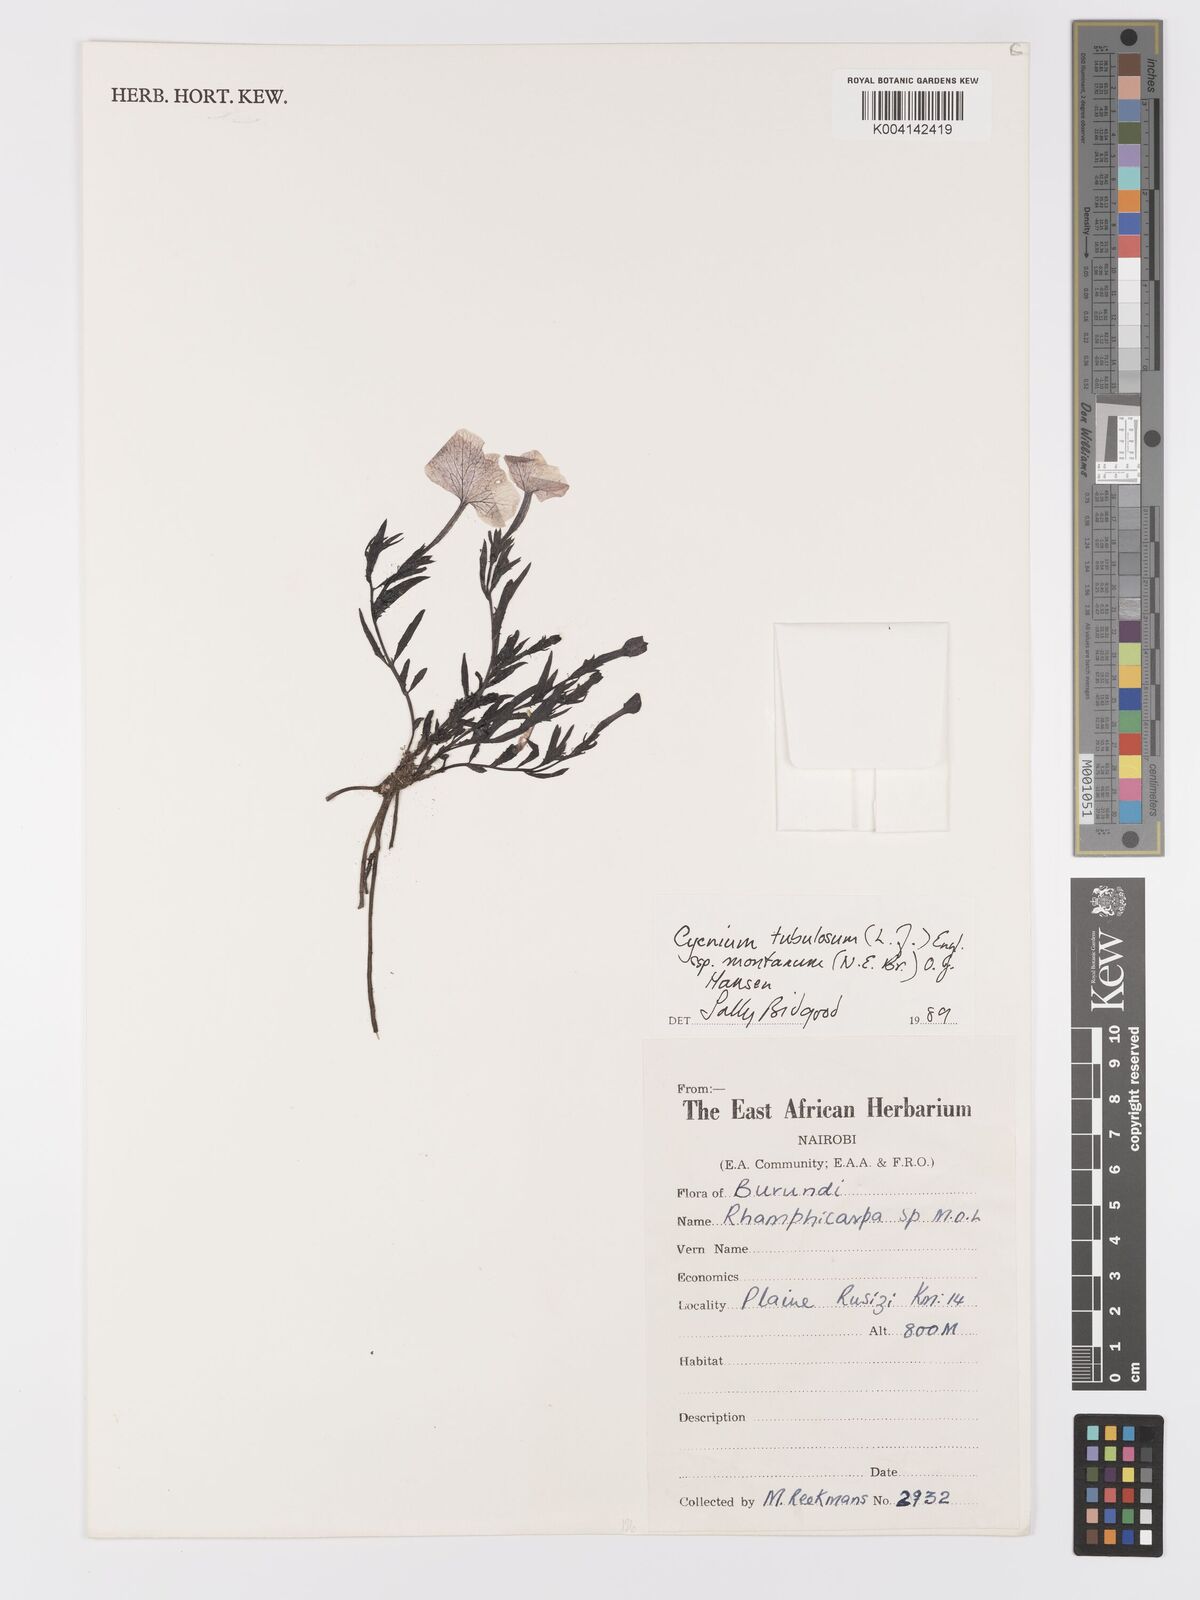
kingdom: Plantae
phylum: Tracheophyta
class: Magnoliopsida
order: Lamiales
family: Orobanchaceae
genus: Cycnium
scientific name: Cycnium tubulosum
